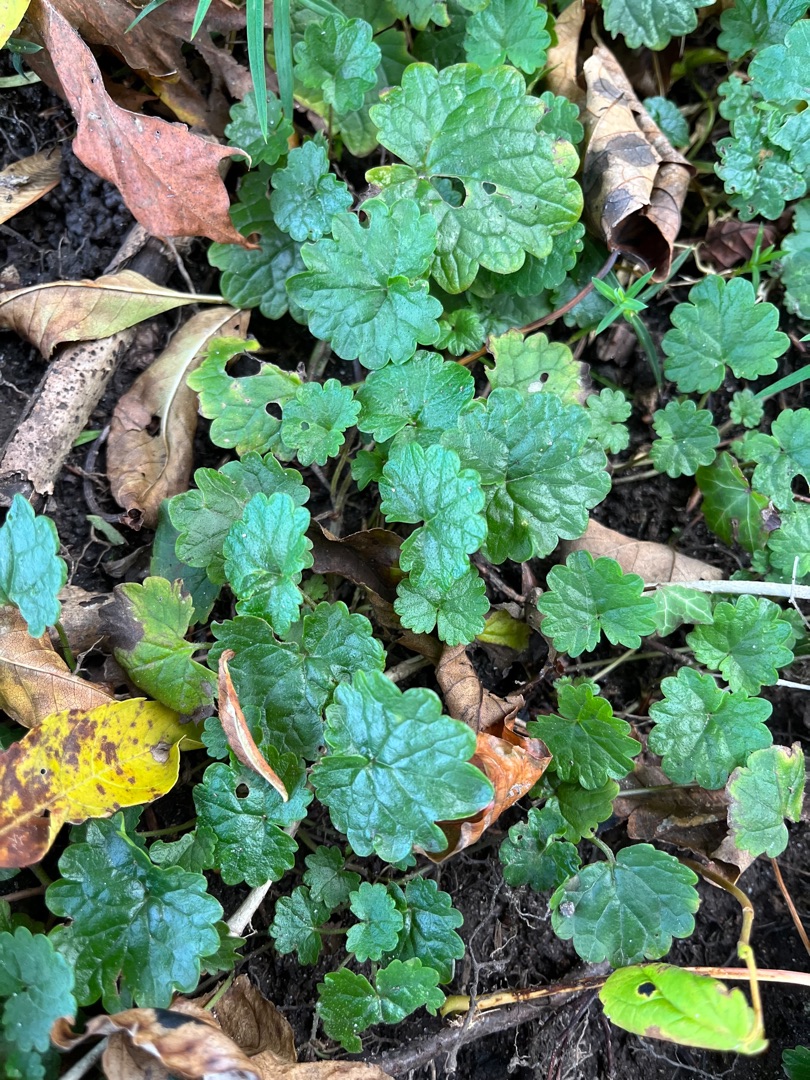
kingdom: Plantae
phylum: Tracheophyta
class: Magnoliopsida
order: Lamiales
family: Lamiaceae
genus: Glechoma
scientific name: Glechoma hederacea
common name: Korsknap
